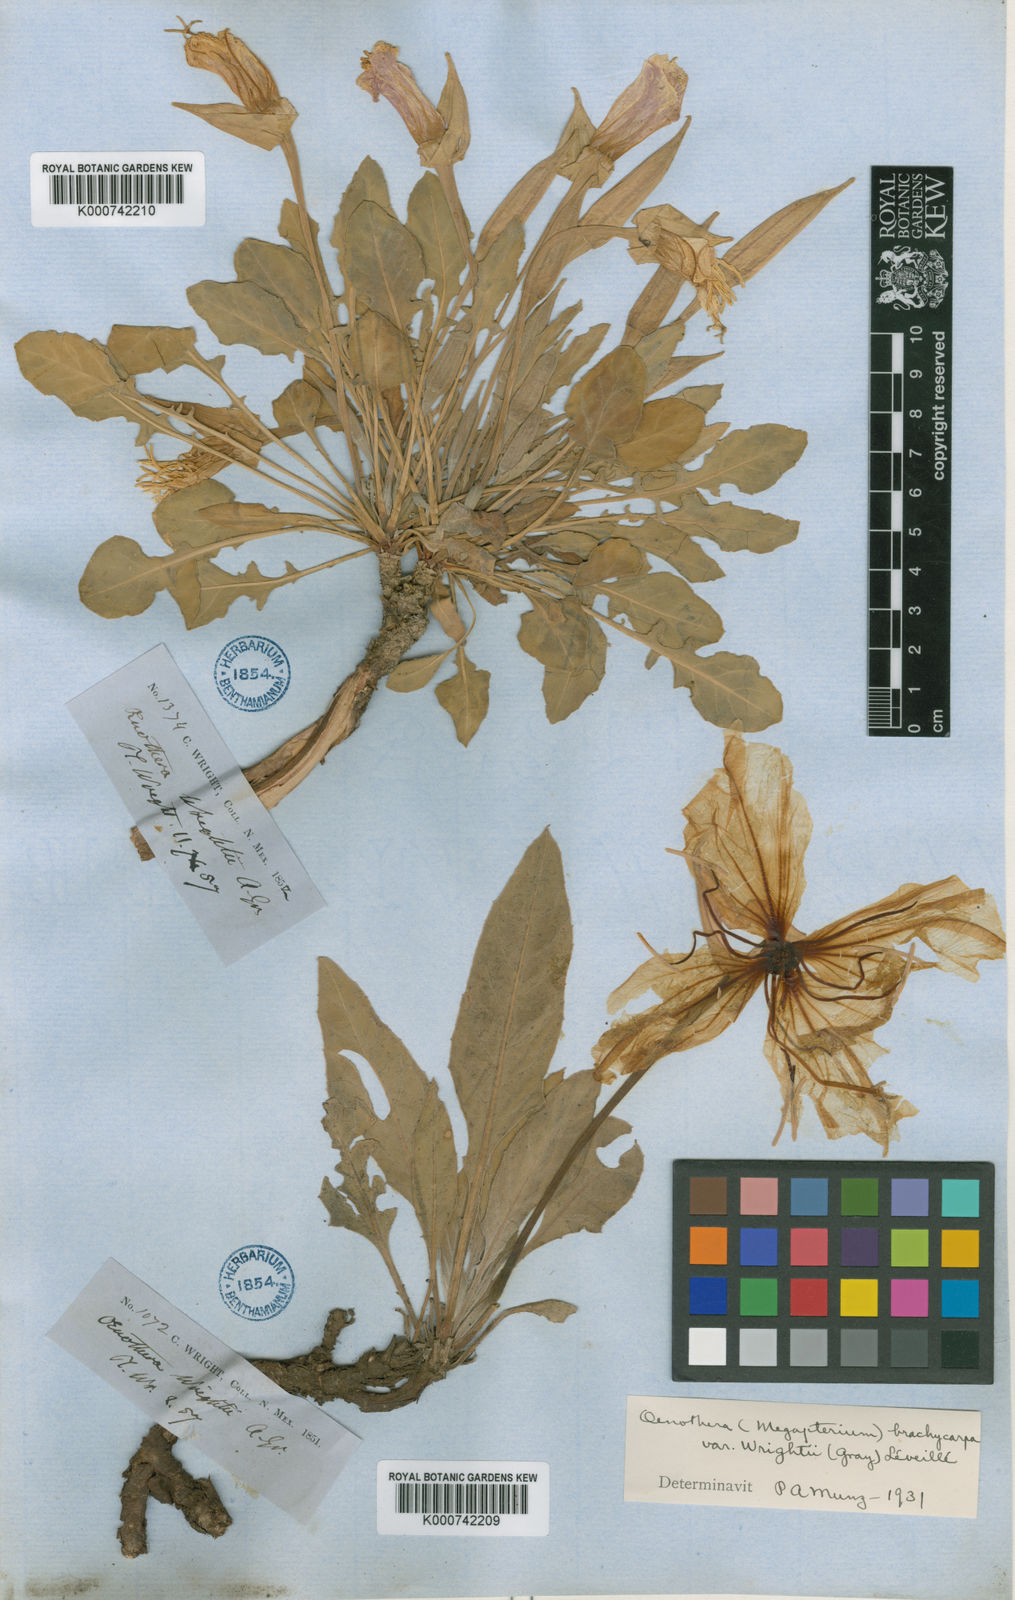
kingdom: Plantae
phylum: Tracheophyta
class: Magnoliopsida
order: Myrtales
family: Onagraceae
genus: Oenothera
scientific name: Oenothera brachycarpa
